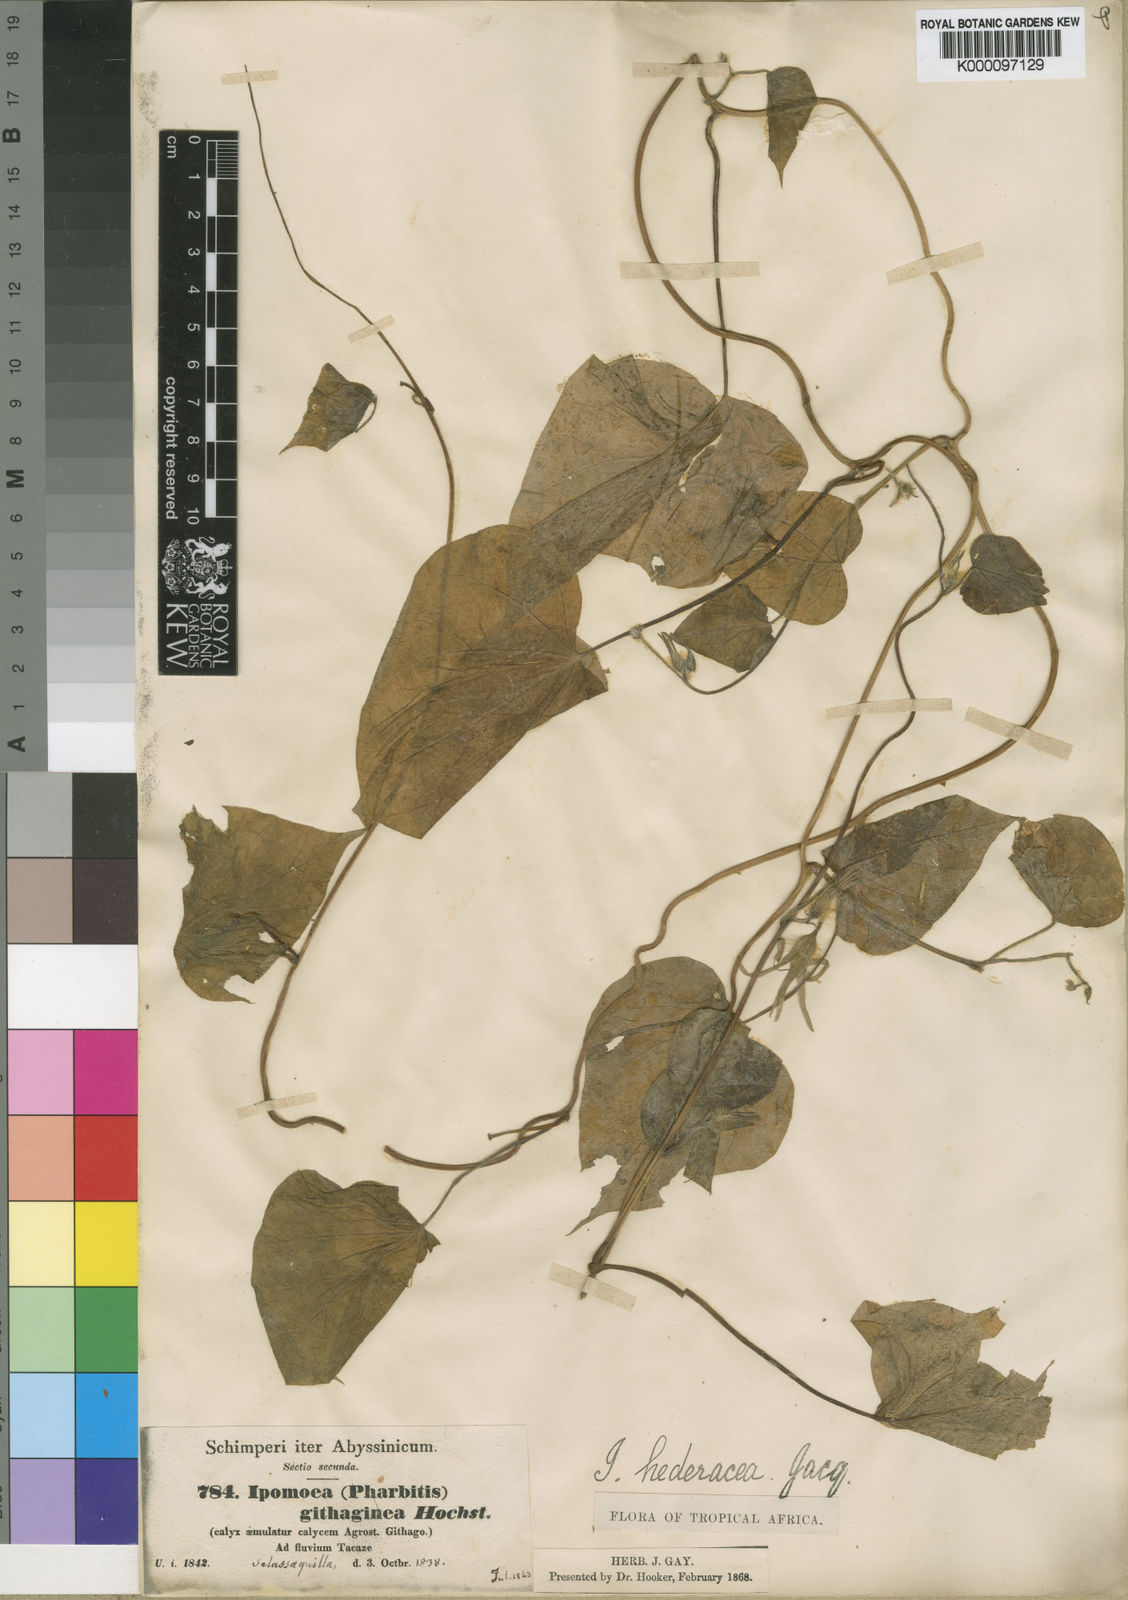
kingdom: Plantae
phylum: Tracheophyta
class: Magnoliopsida
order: Solanales
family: Convolvulaceae
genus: Ipomoea
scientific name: Ipomoea hederacea
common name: Ivy-leaved morning-glory
